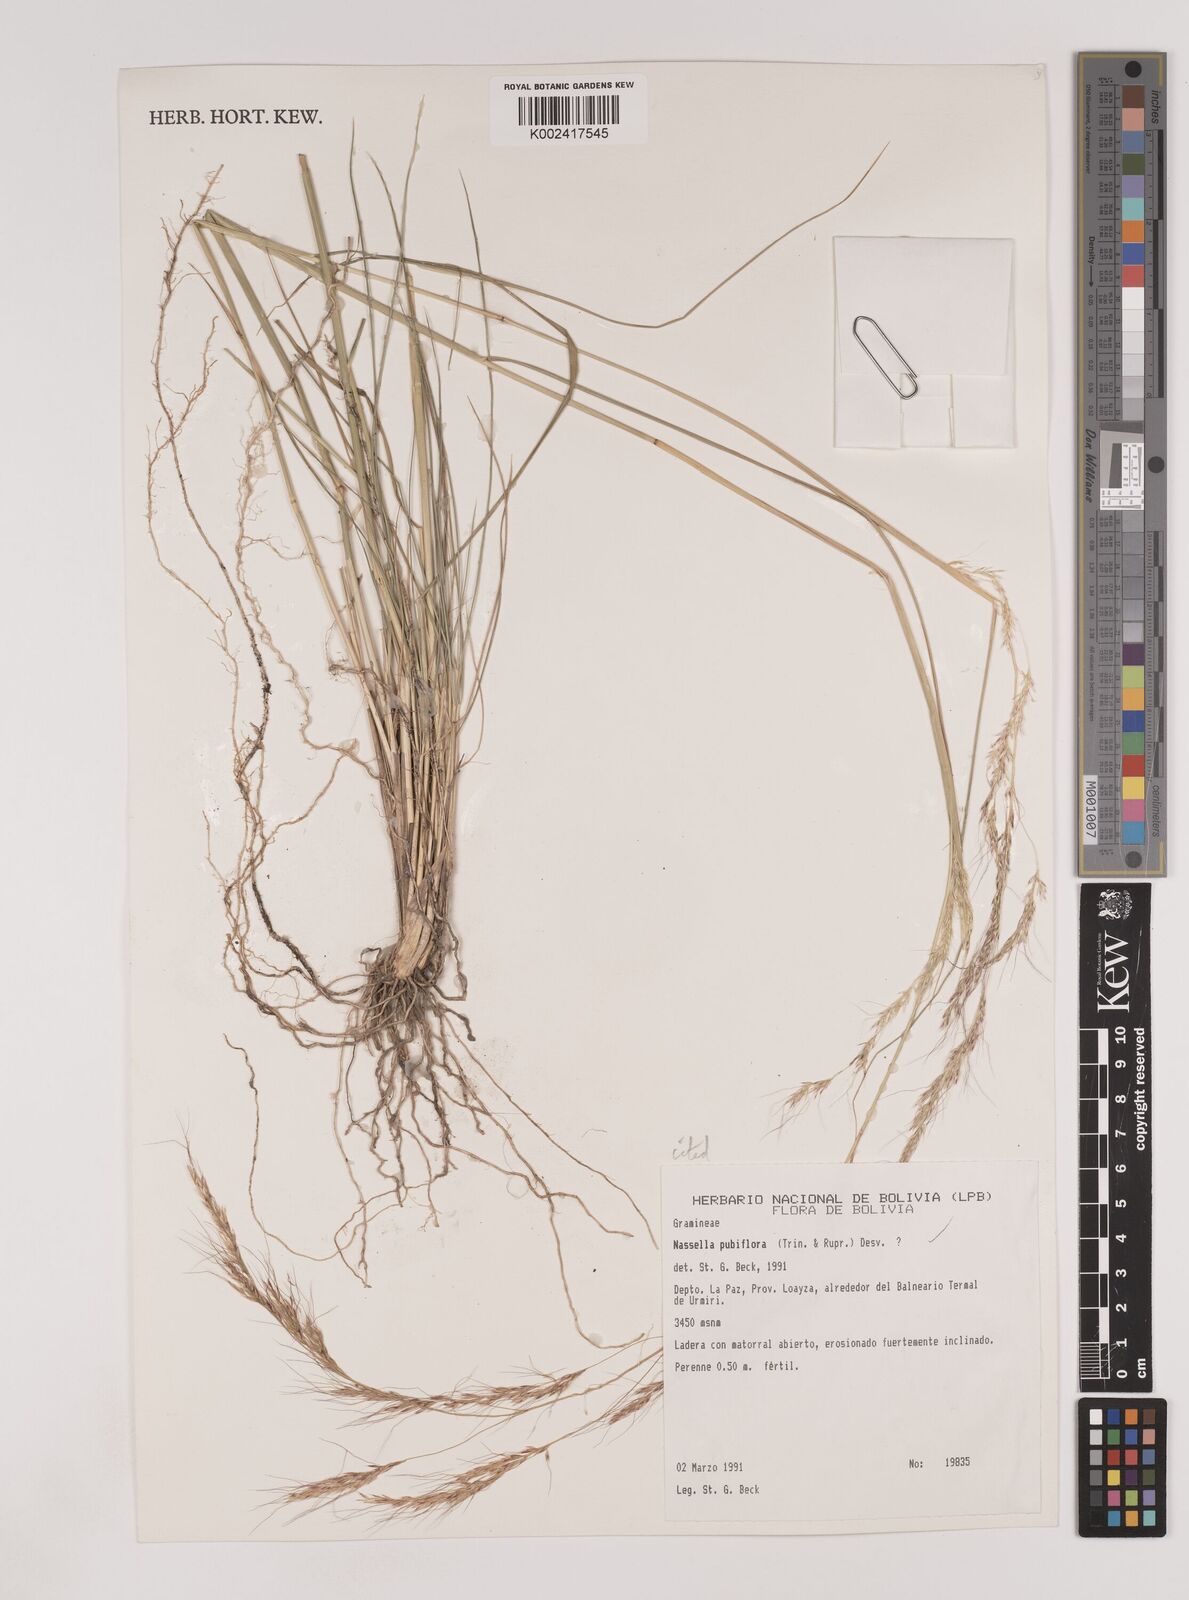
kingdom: Plantae
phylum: Tracheophyta
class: Liliopsida
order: Poales
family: Poaceae
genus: Nassella
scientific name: Nassella pubiflora
